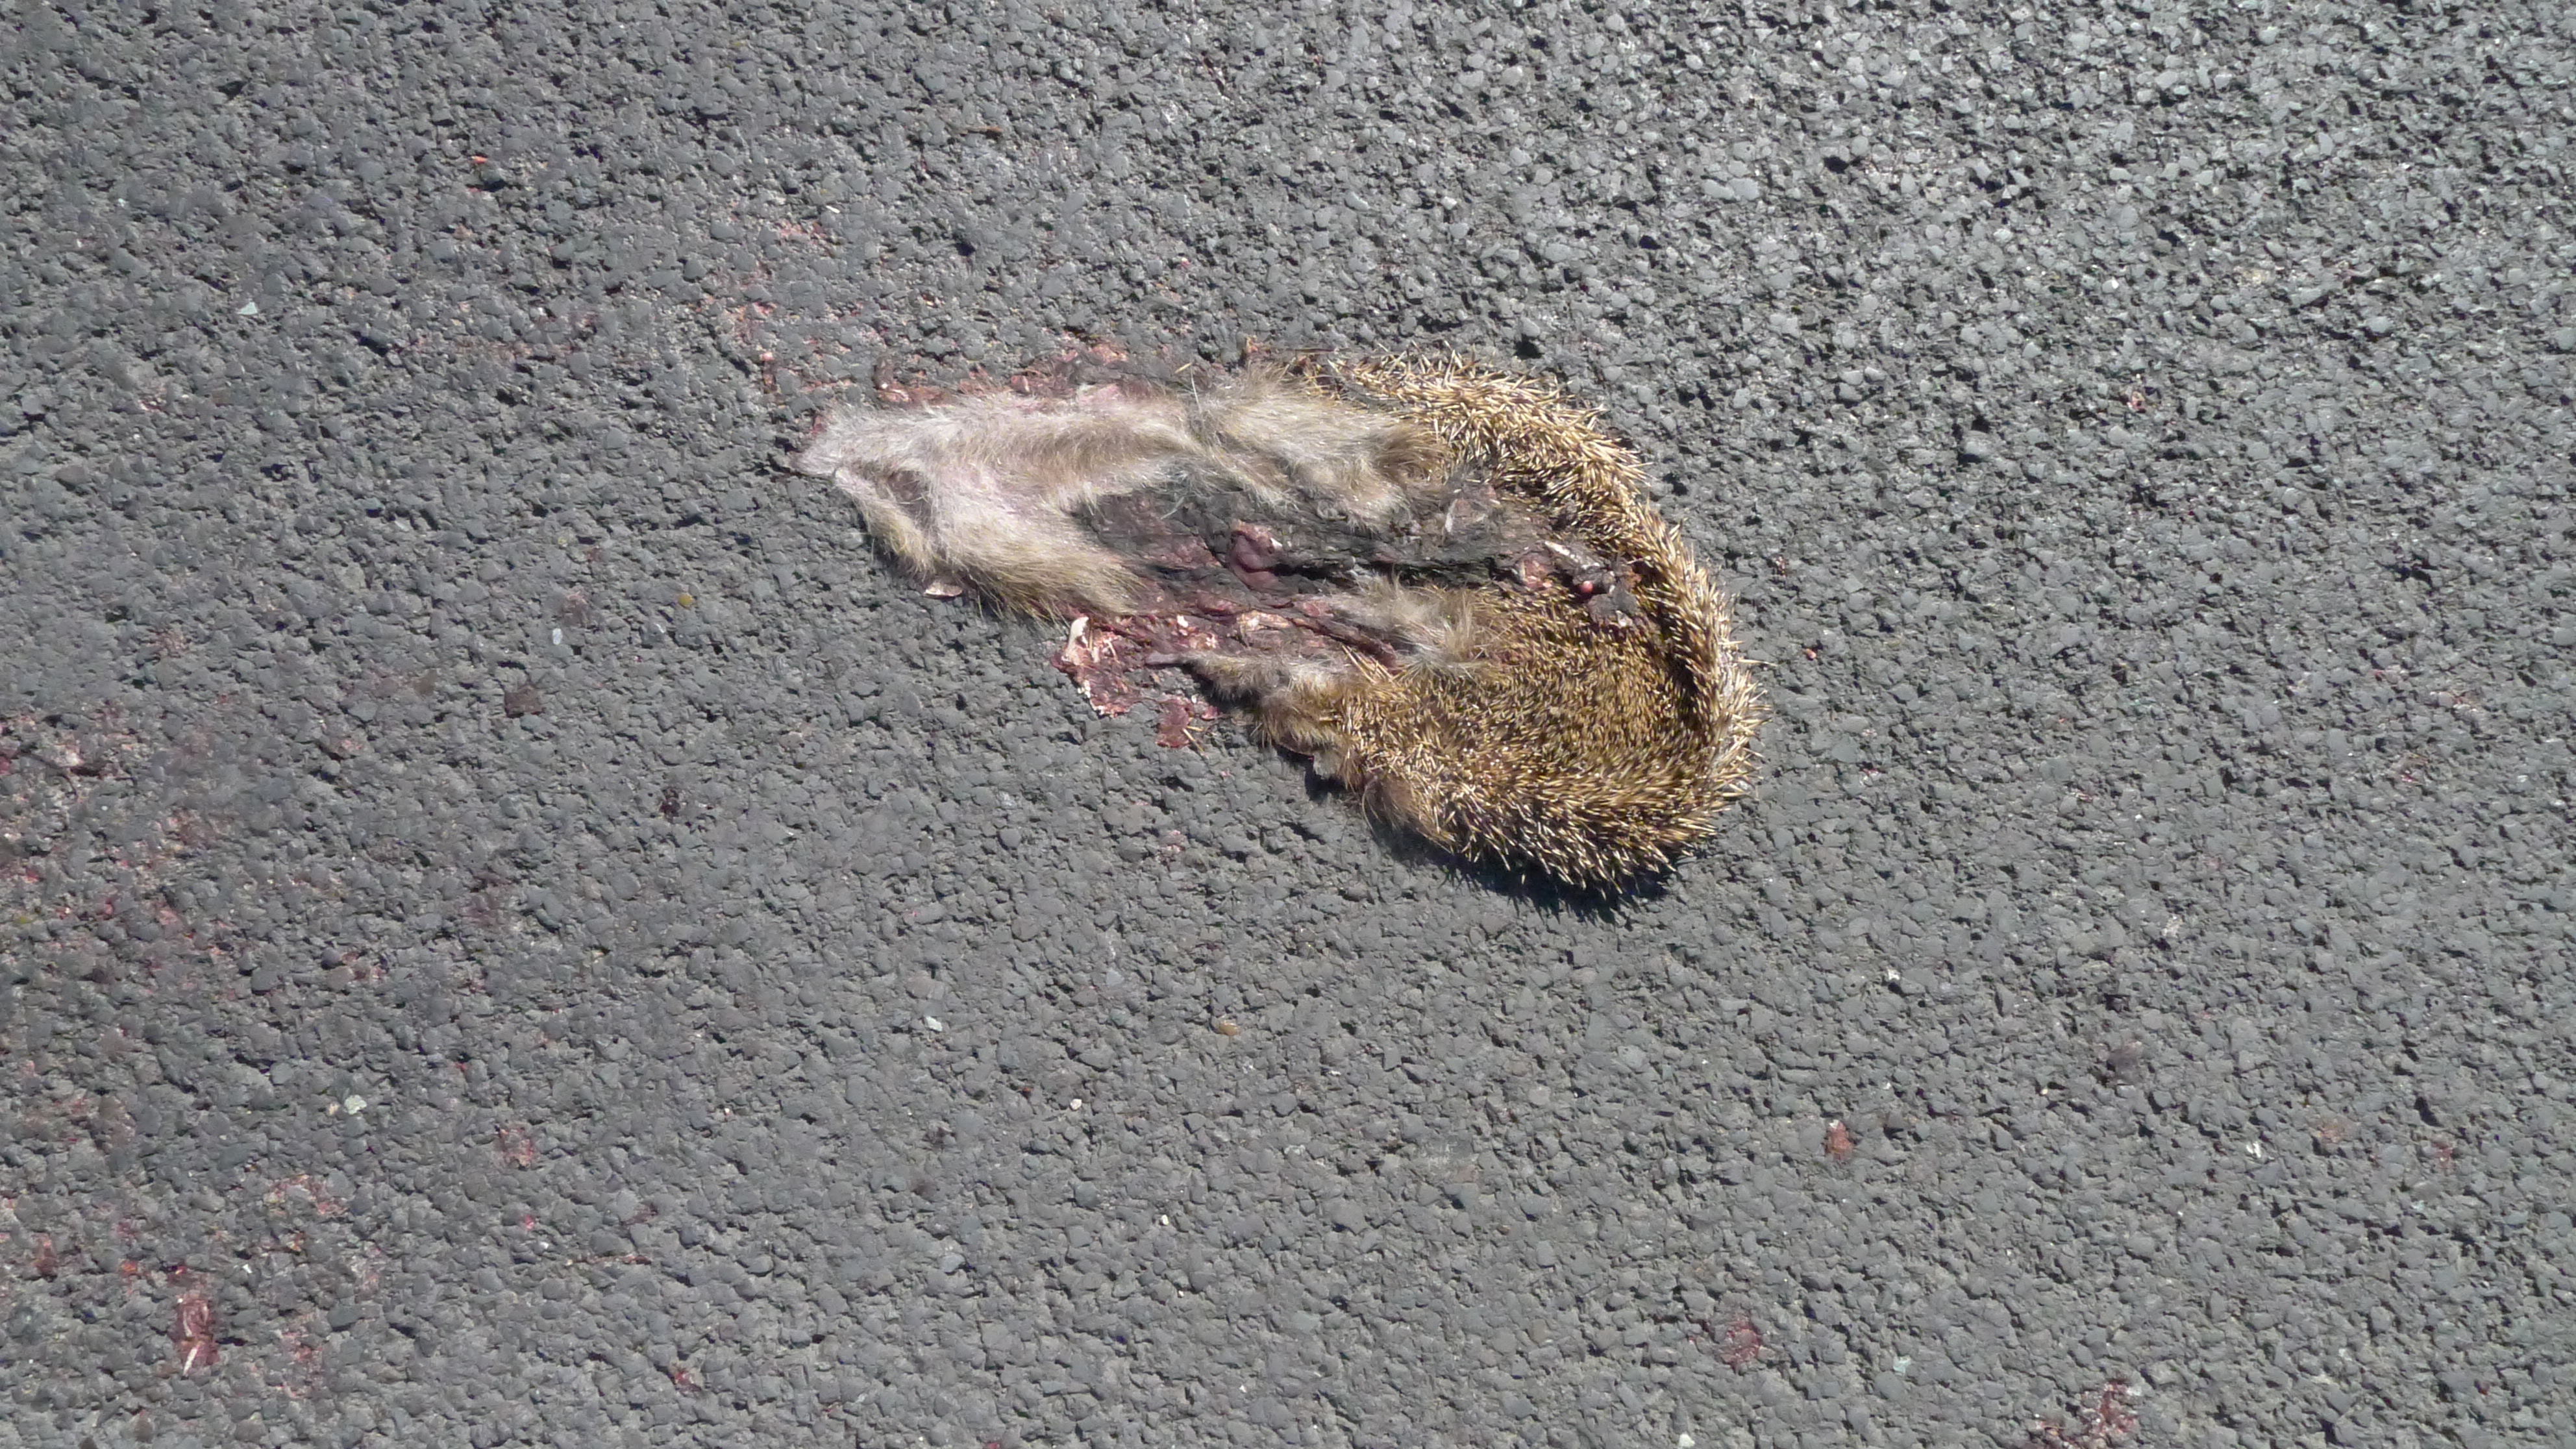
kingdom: Animalia
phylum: Chordata
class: Mammalia
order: Erinaceomorpha
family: Erinaceidae
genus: Erinaceus
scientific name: Erinaceus
